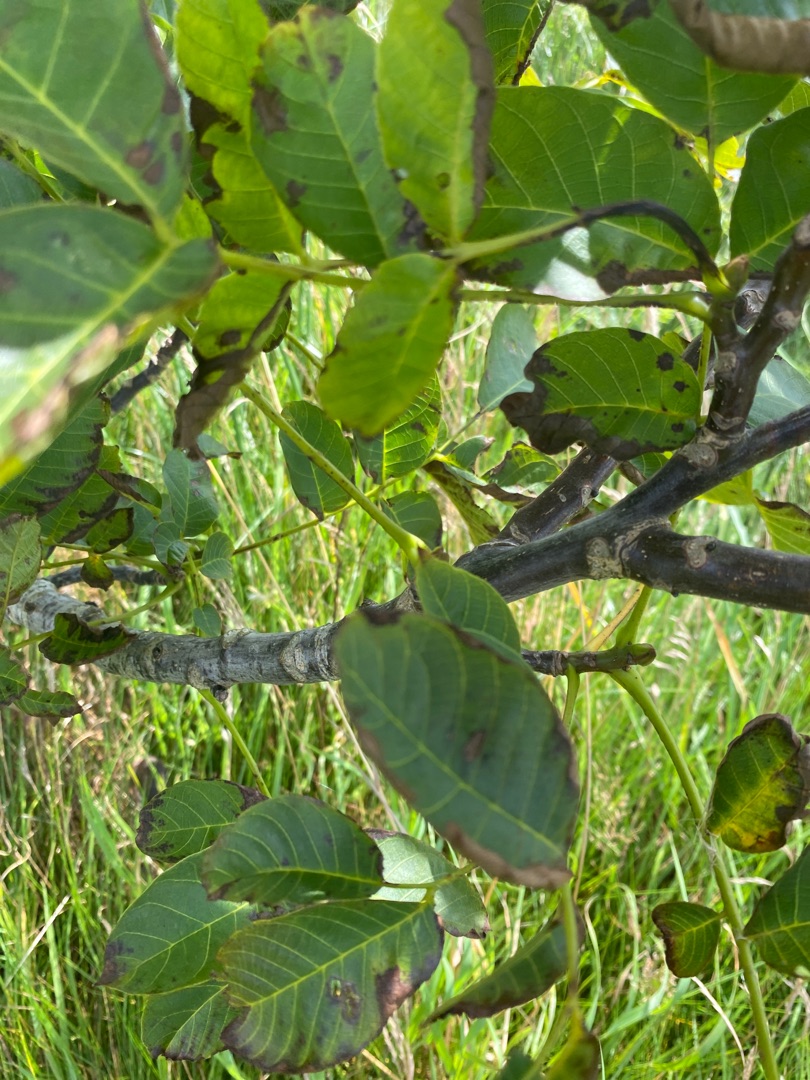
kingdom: Plantae
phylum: Tracheophyta
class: Magnoliopsida
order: Fagales
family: Juglandaceae
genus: Juglans
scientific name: Juglans regia
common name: Almindelig valnød
